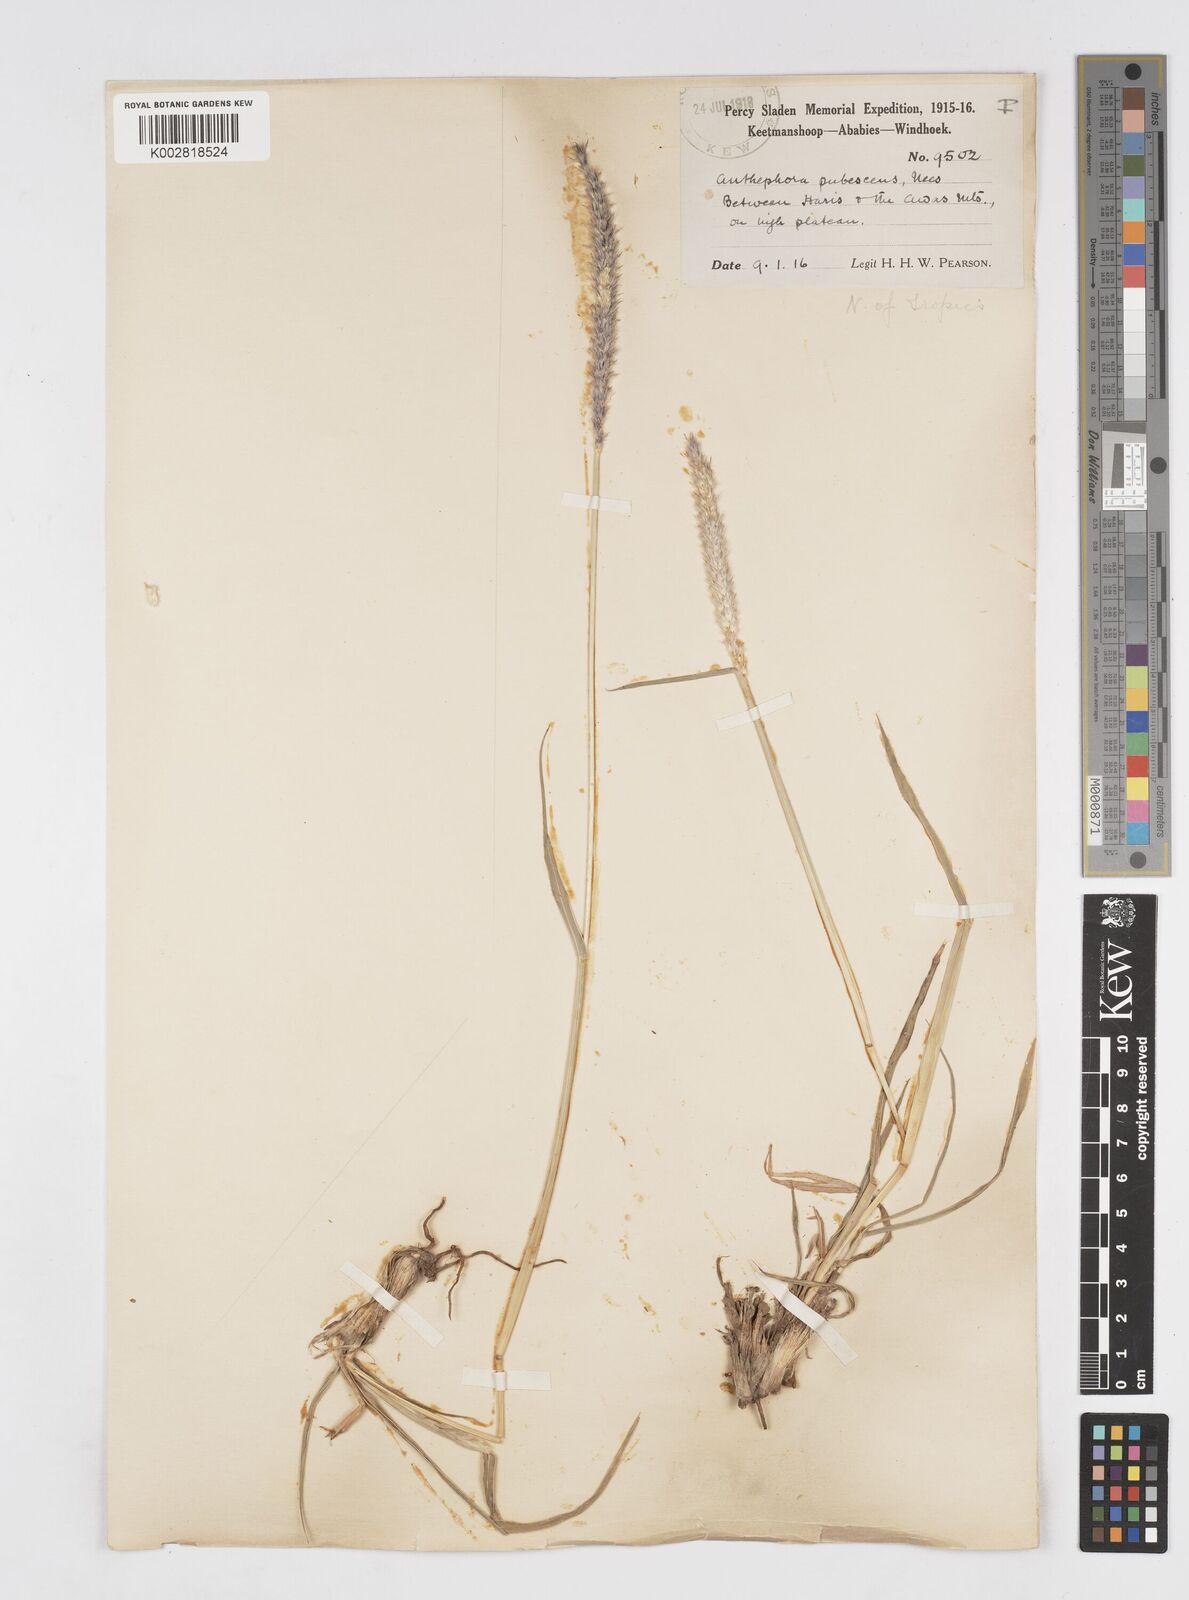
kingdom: Plantae
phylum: Tracheophyta
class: Liliopsida
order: Poales
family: Poaceae
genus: Anthephora
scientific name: Anthephora pubescens
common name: Wool grass
